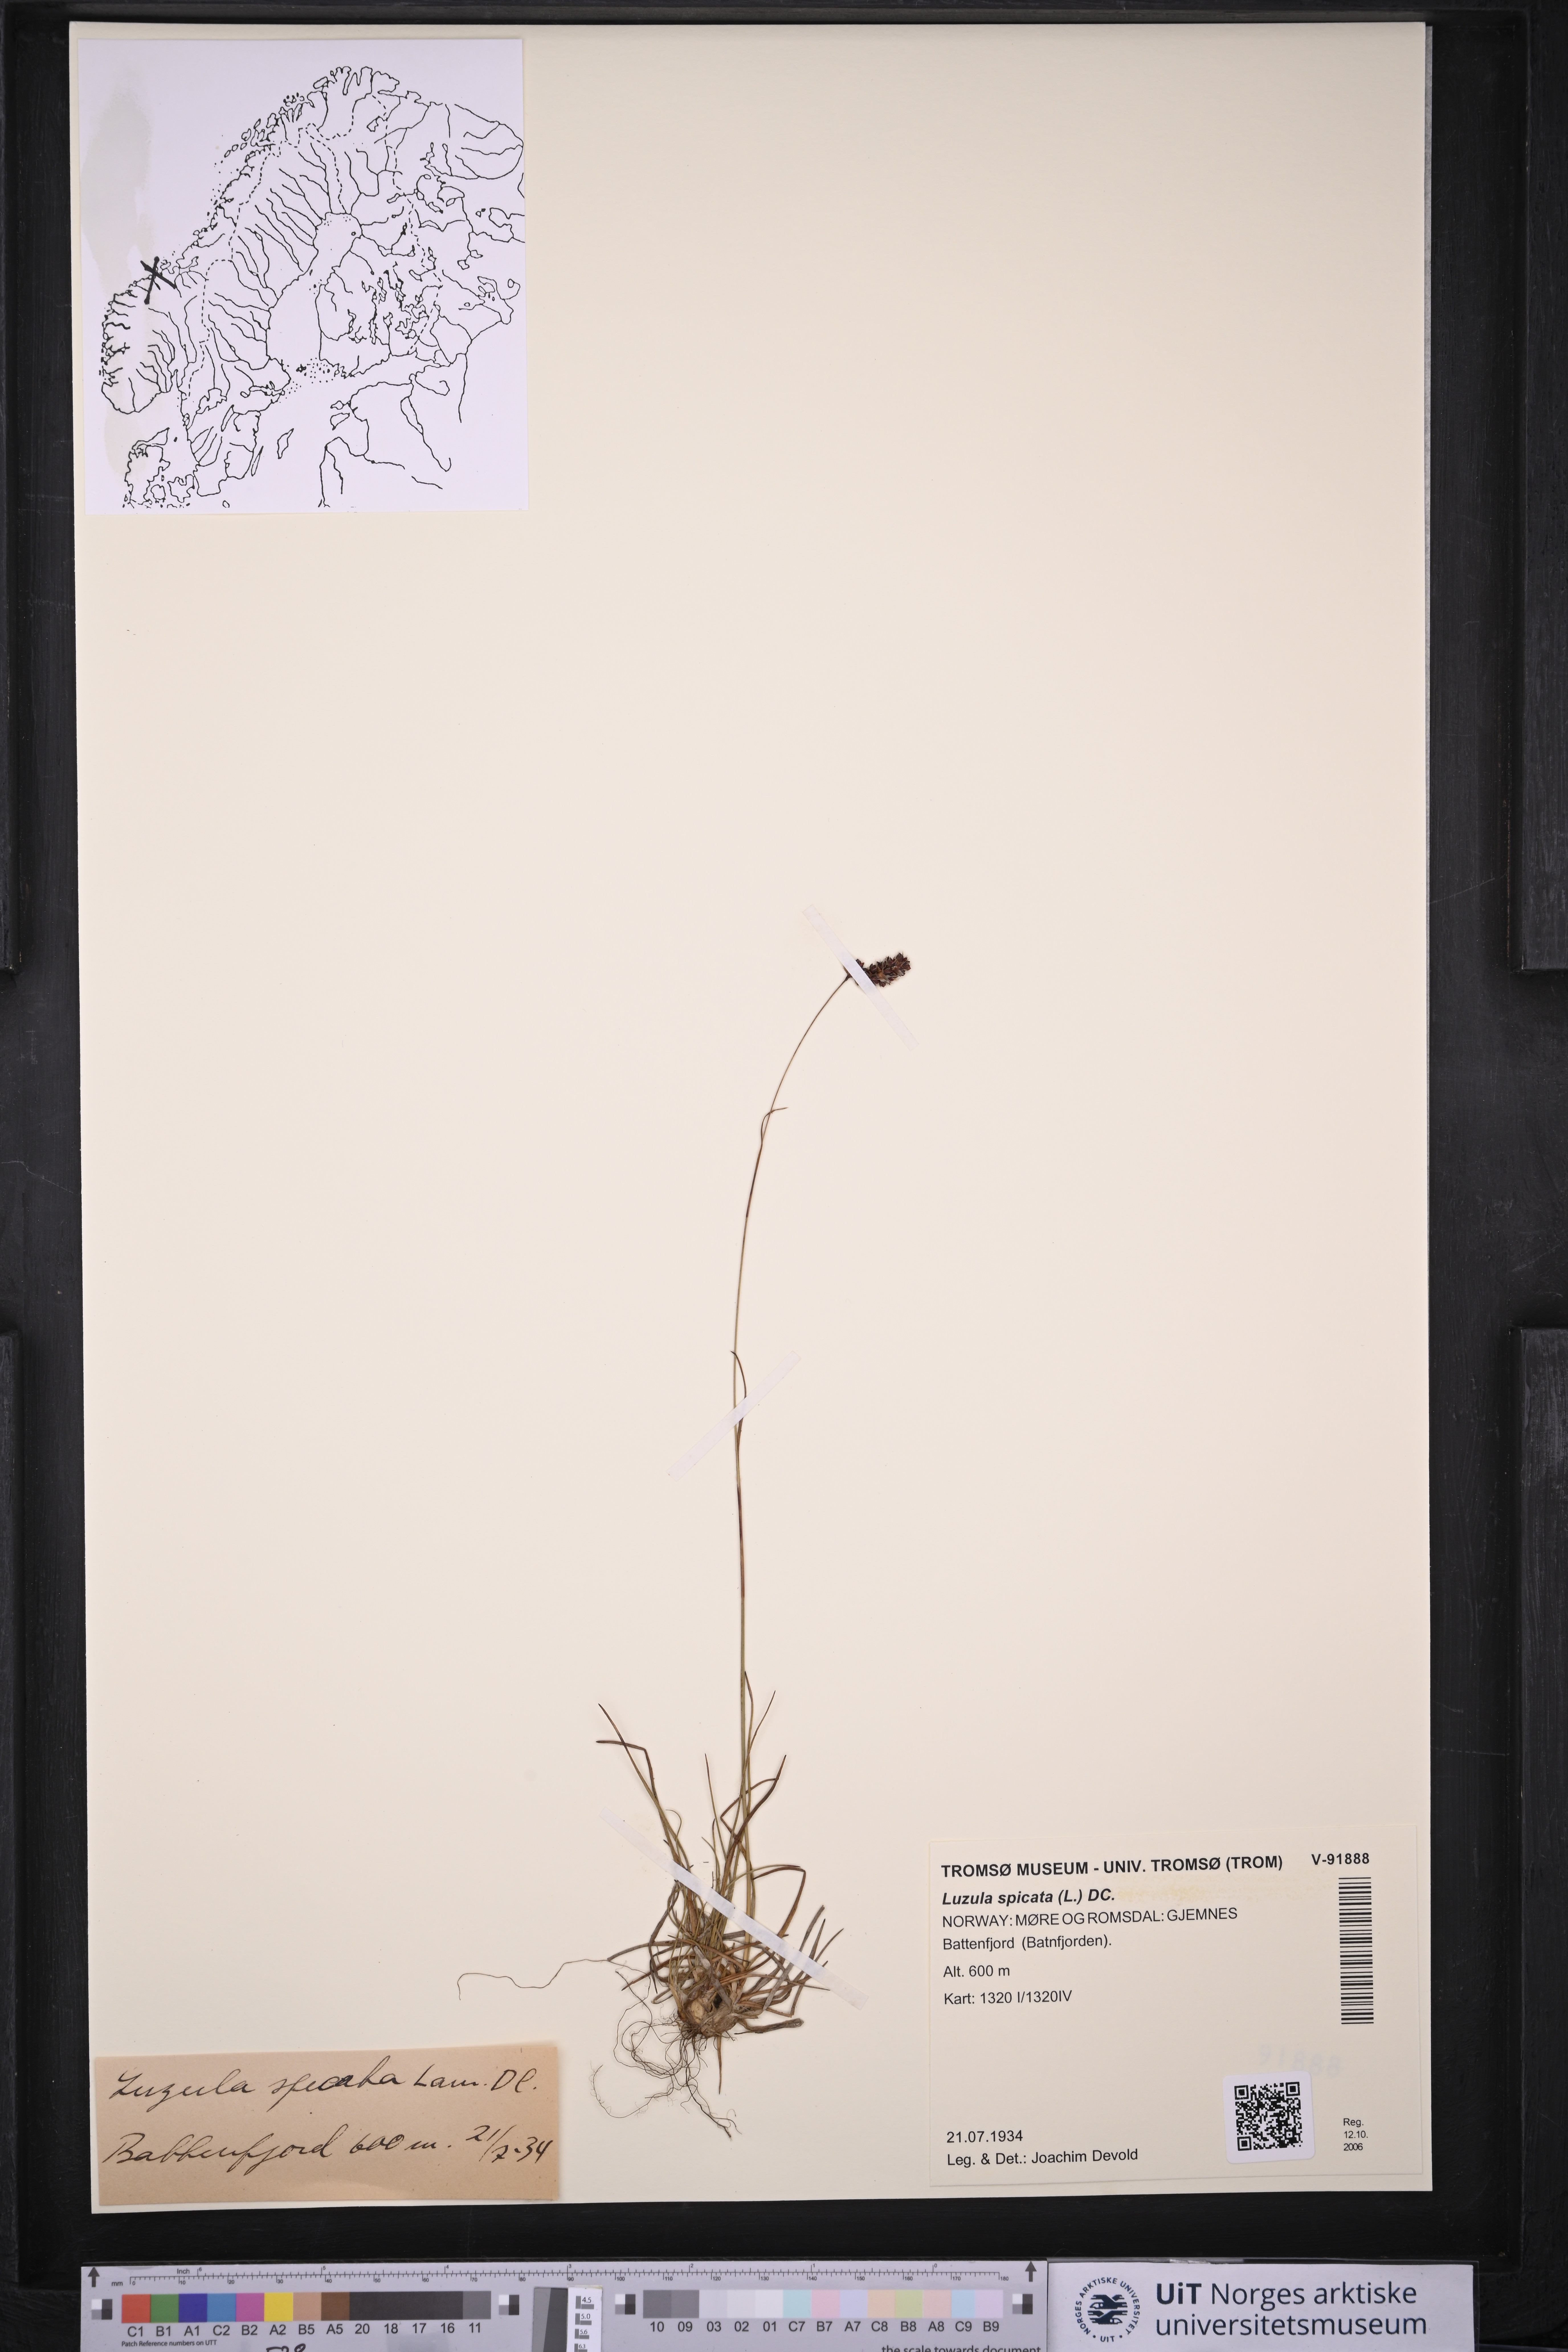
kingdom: Plantae
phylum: Tracheophyta
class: Liliopsida
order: Poales
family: Juncaceae
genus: Luzula
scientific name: Luzula spicata
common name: Spiked wood-rush
